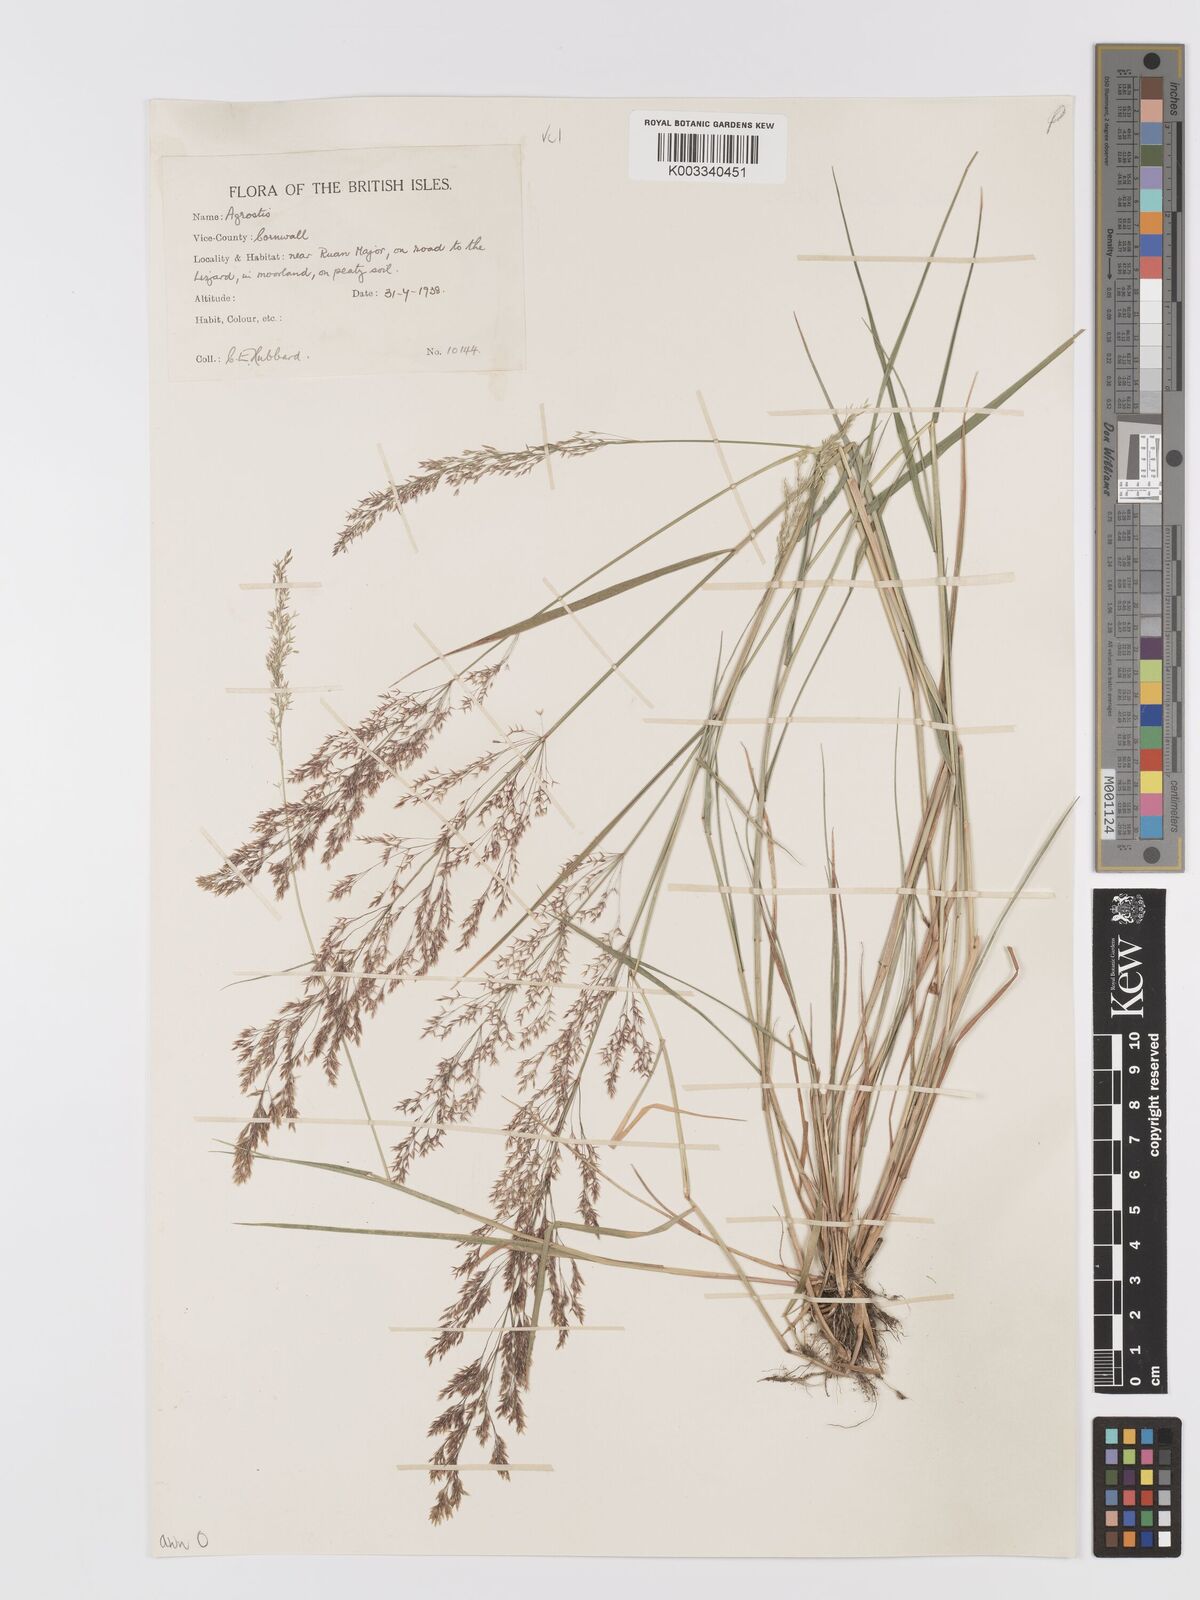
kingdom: Plantae
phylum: Tracheophyta
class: Liliopsida
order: Poales
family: Poaceae
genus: Agrostis
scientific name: Agrostis capillaris
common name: Colonial bentgrass
